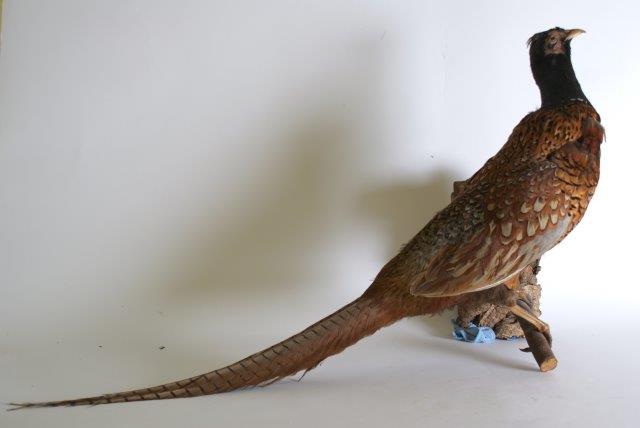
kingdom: Animalia
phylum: Chordata
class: Aves
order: Galliformes
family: Phasianidae
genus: Phasianus
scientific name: Phasianus colchicus
